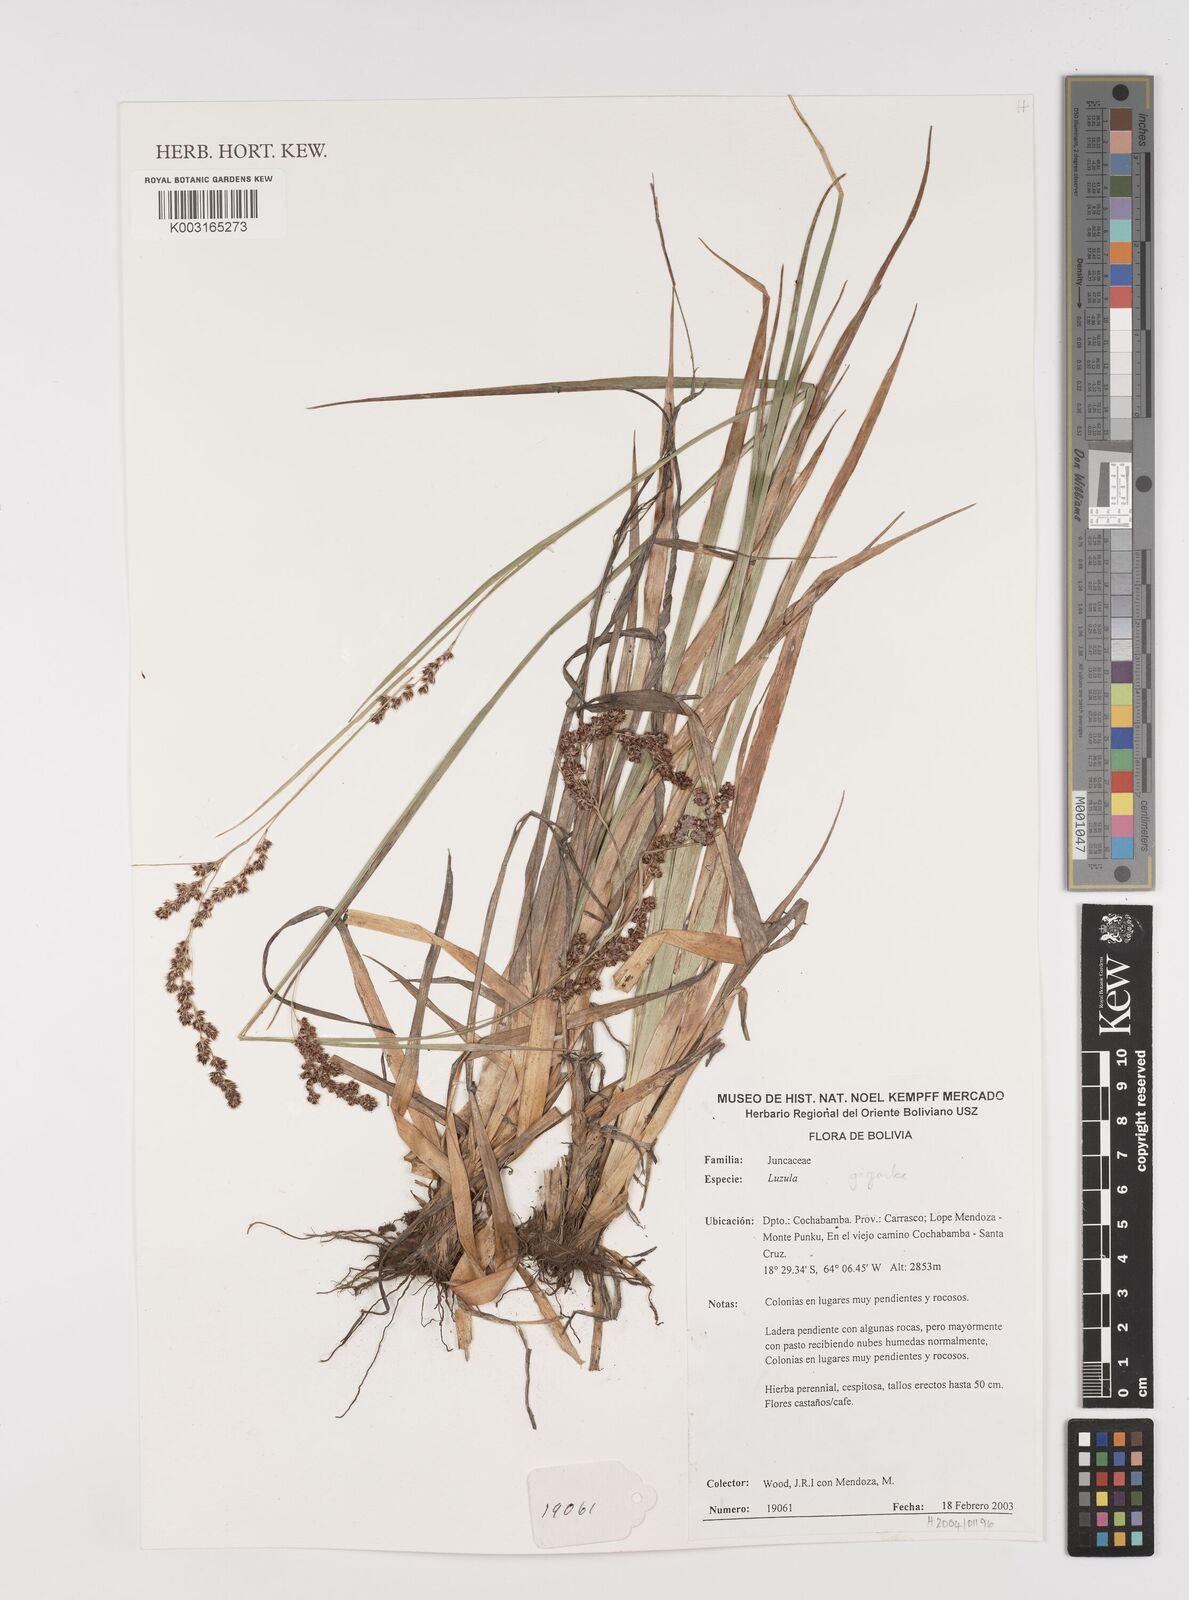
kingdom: Plantae
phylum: Tracheophyta
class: Liliopsida
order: Poales
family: Juncaceae
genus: Luzula
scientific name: Luzula gigantea
